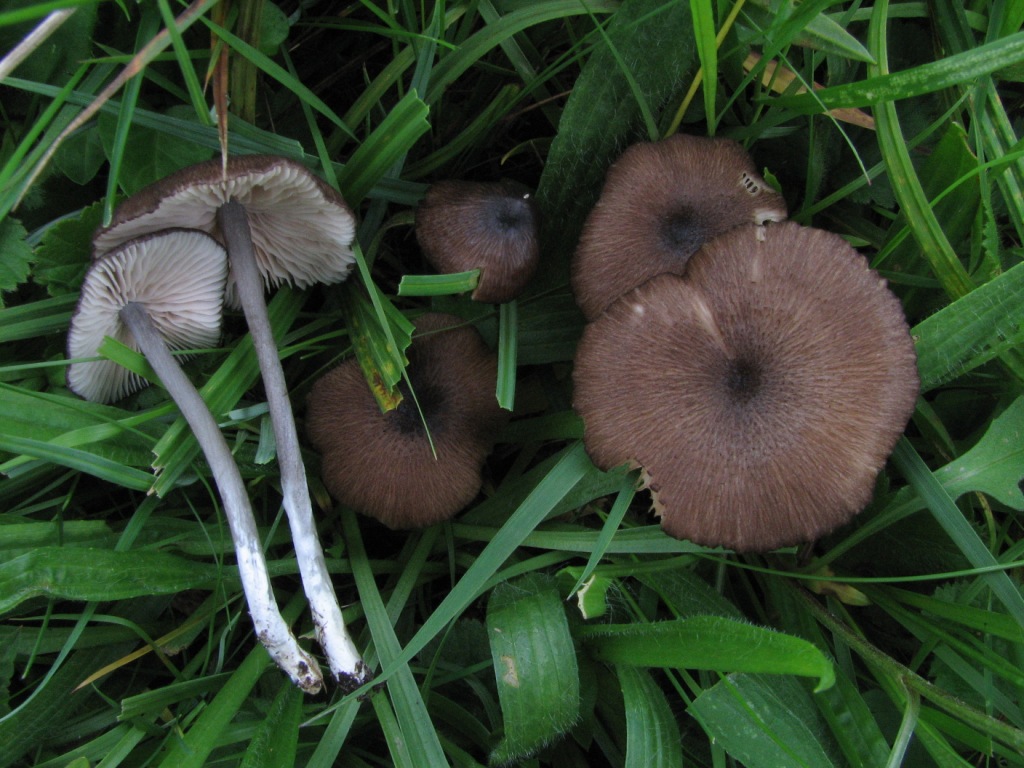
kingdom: Fungi
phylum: Basidiomycota
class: Agaricomycetes
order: Agaricales
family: Entolomataceae
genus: Entoloma
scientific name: Entoloma porphyrogriseum
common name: porfyrgrå rødblad
